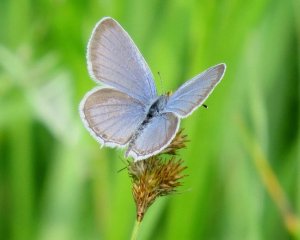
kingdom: Animalia
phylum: Arthropoda
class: Insecta
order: Lepidoptera
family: Lycaenidae
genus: Elkalyce
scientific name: Elkalyce comyntas
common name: Eastern Tailed-Blue
